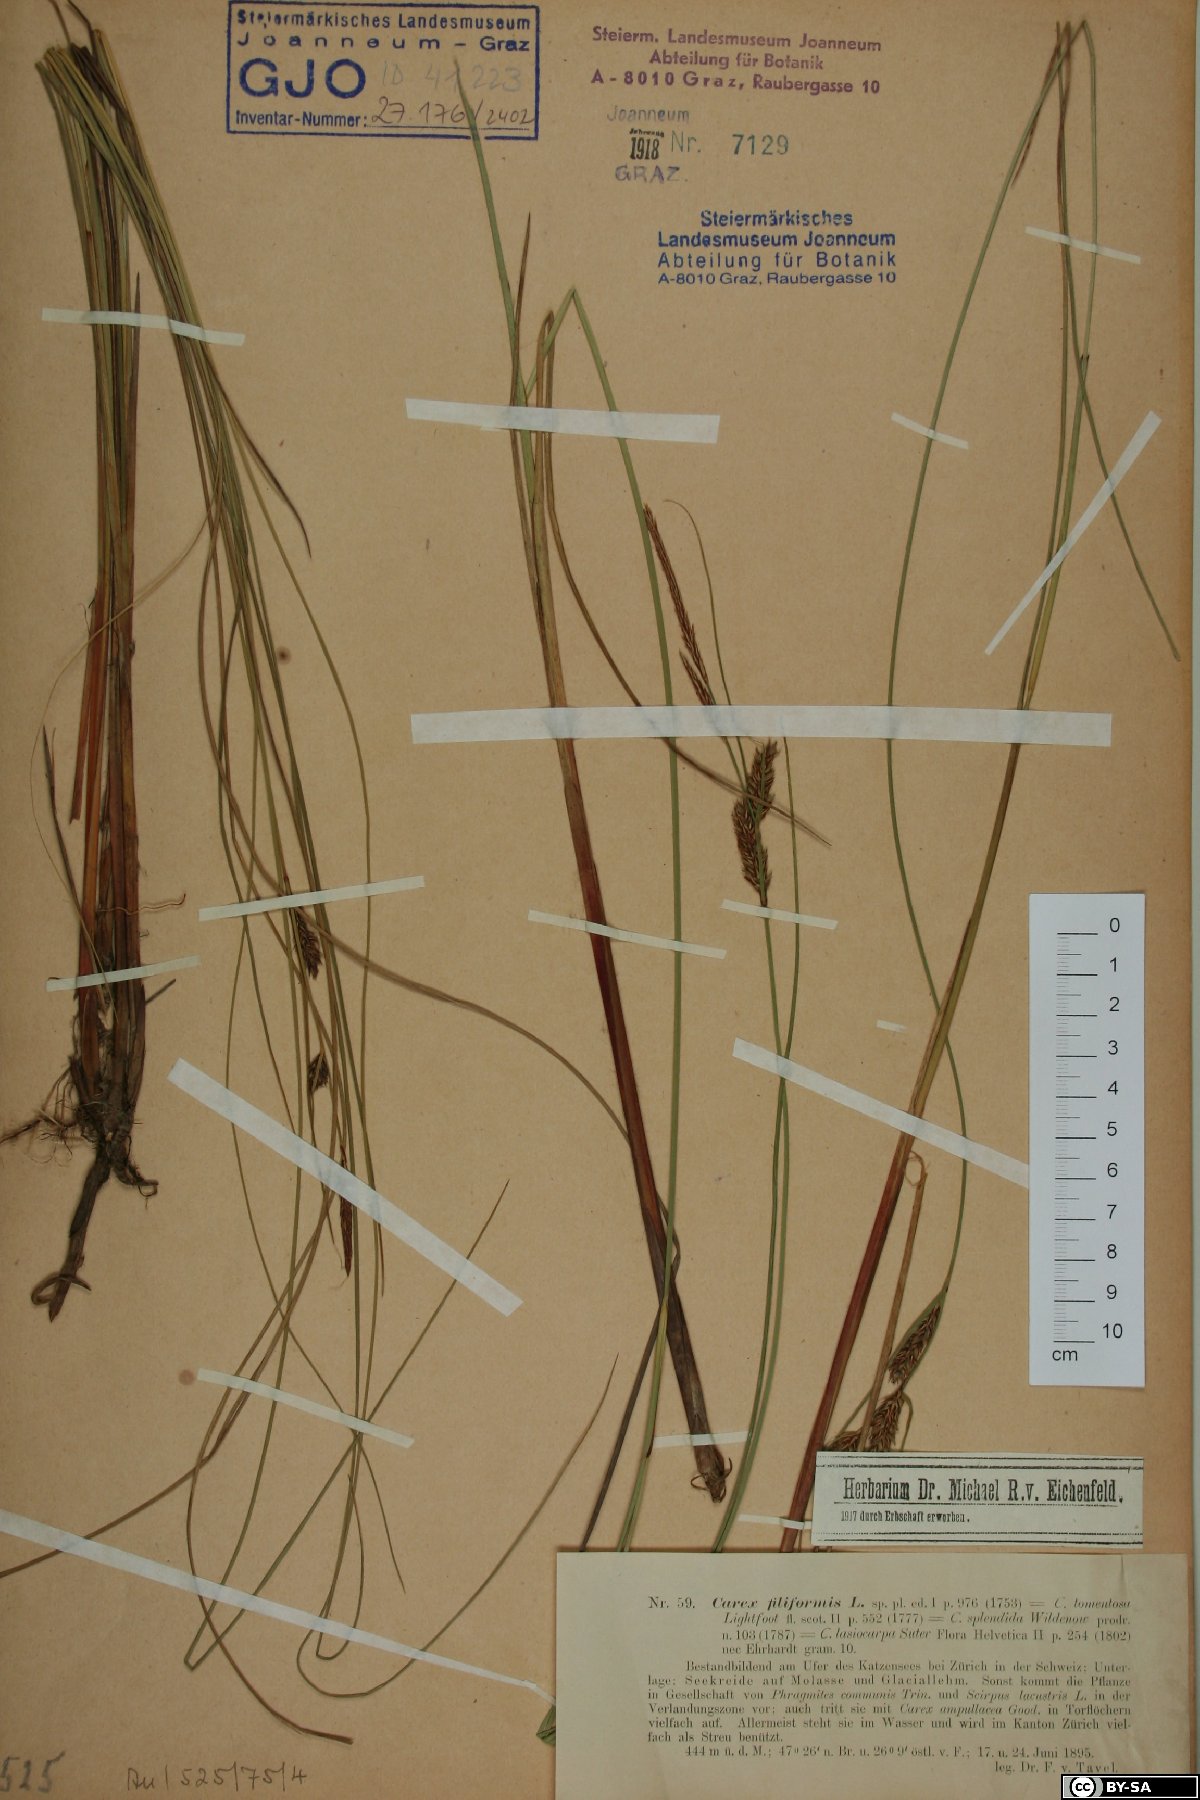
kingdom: Plantae
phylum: Tracheophyta
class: Liliopsida
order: Poales
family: Cyperaceae
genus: Carex
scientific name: Carex montana
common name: Soft-leaved sedge
